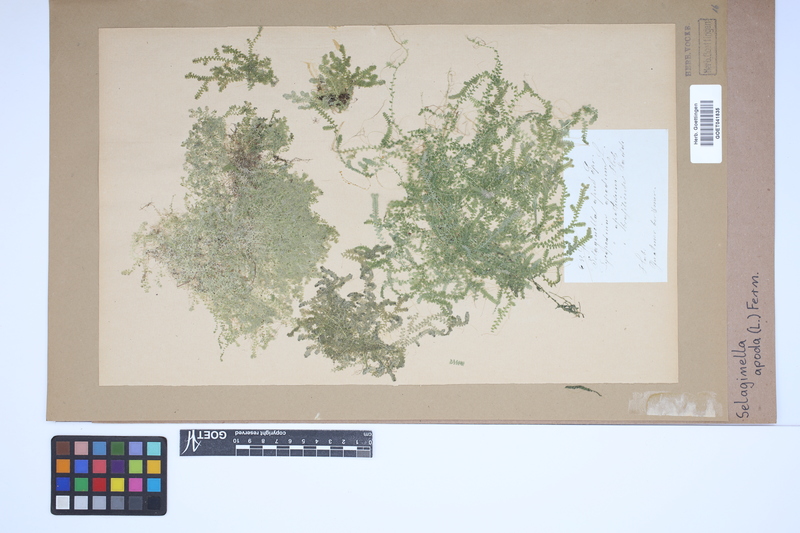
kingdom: Plantae
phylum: Tracheophyta
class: Lycopodiopsida
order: Selaginellales
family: Selaginellaceae
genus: Selaginella
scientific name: Selaginella apoda
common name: Creeping spikemoss
